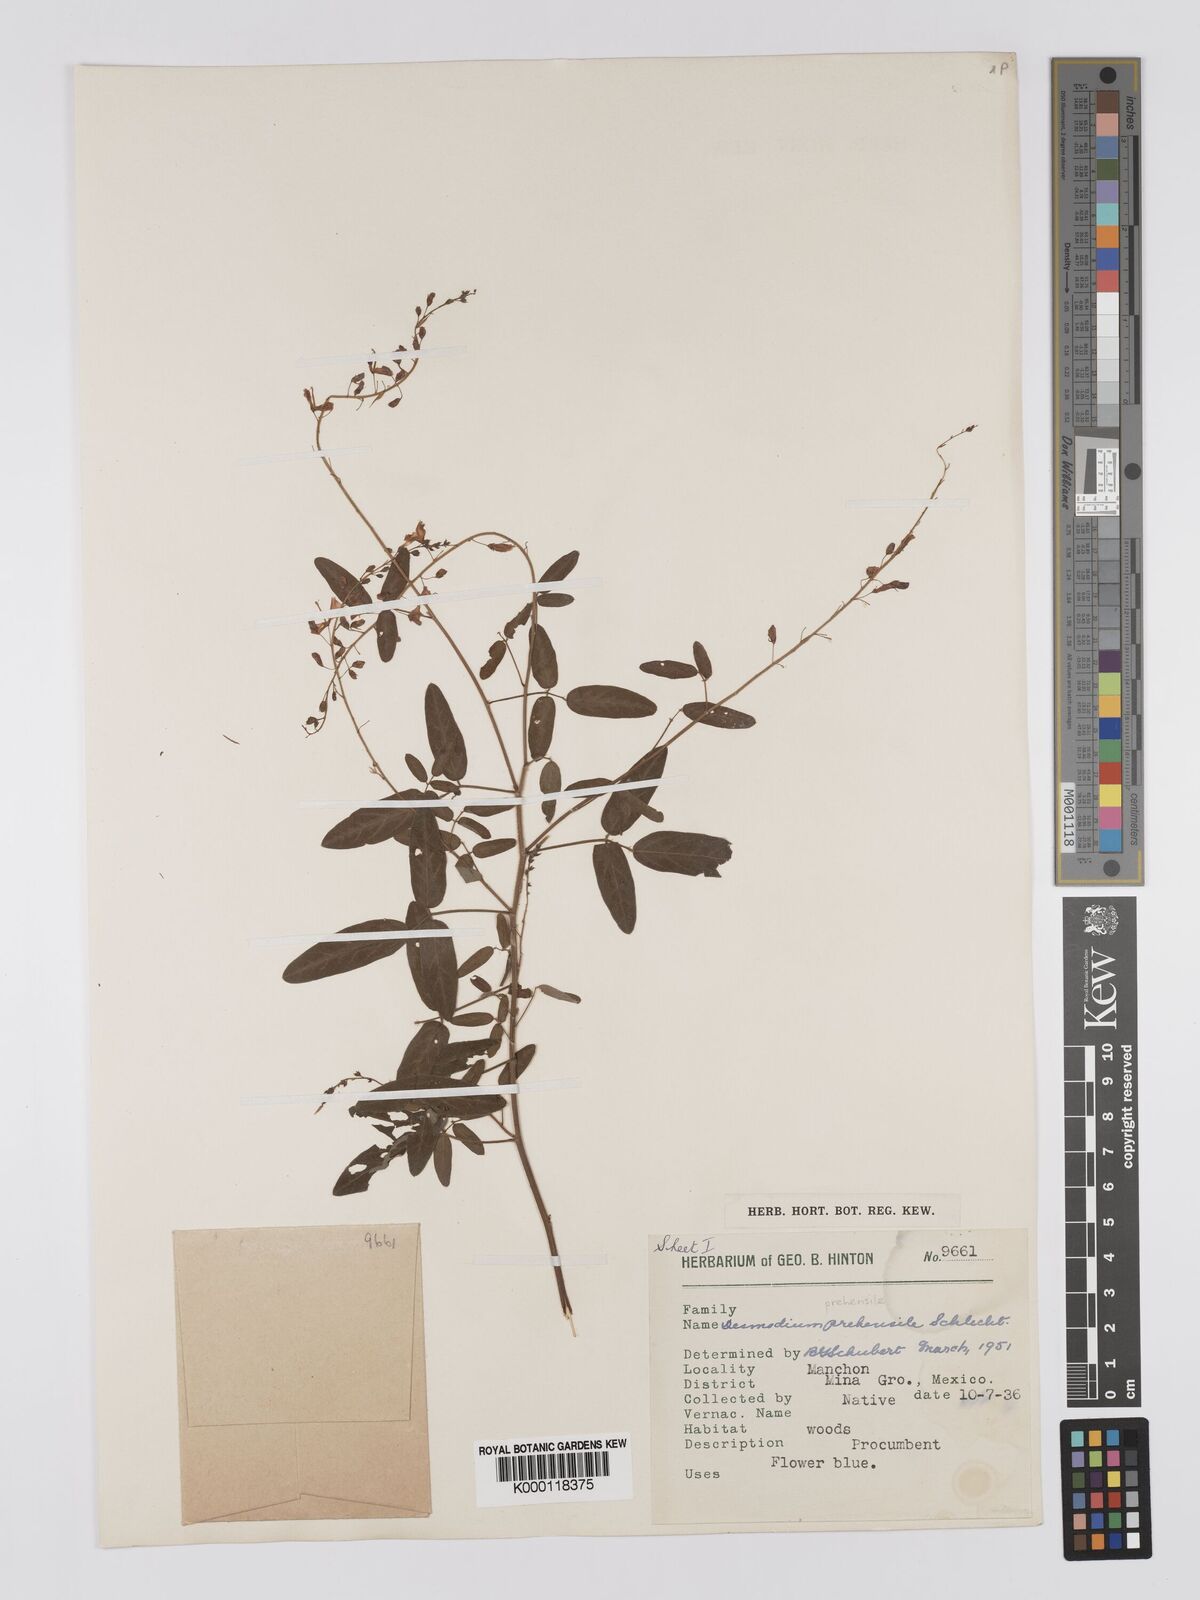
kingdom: Plantae
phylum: Tracheophyta
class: Magnoliopsida
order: Fabales
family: Fabaceae
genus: Desmodium
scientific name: Desmodium prehensile
